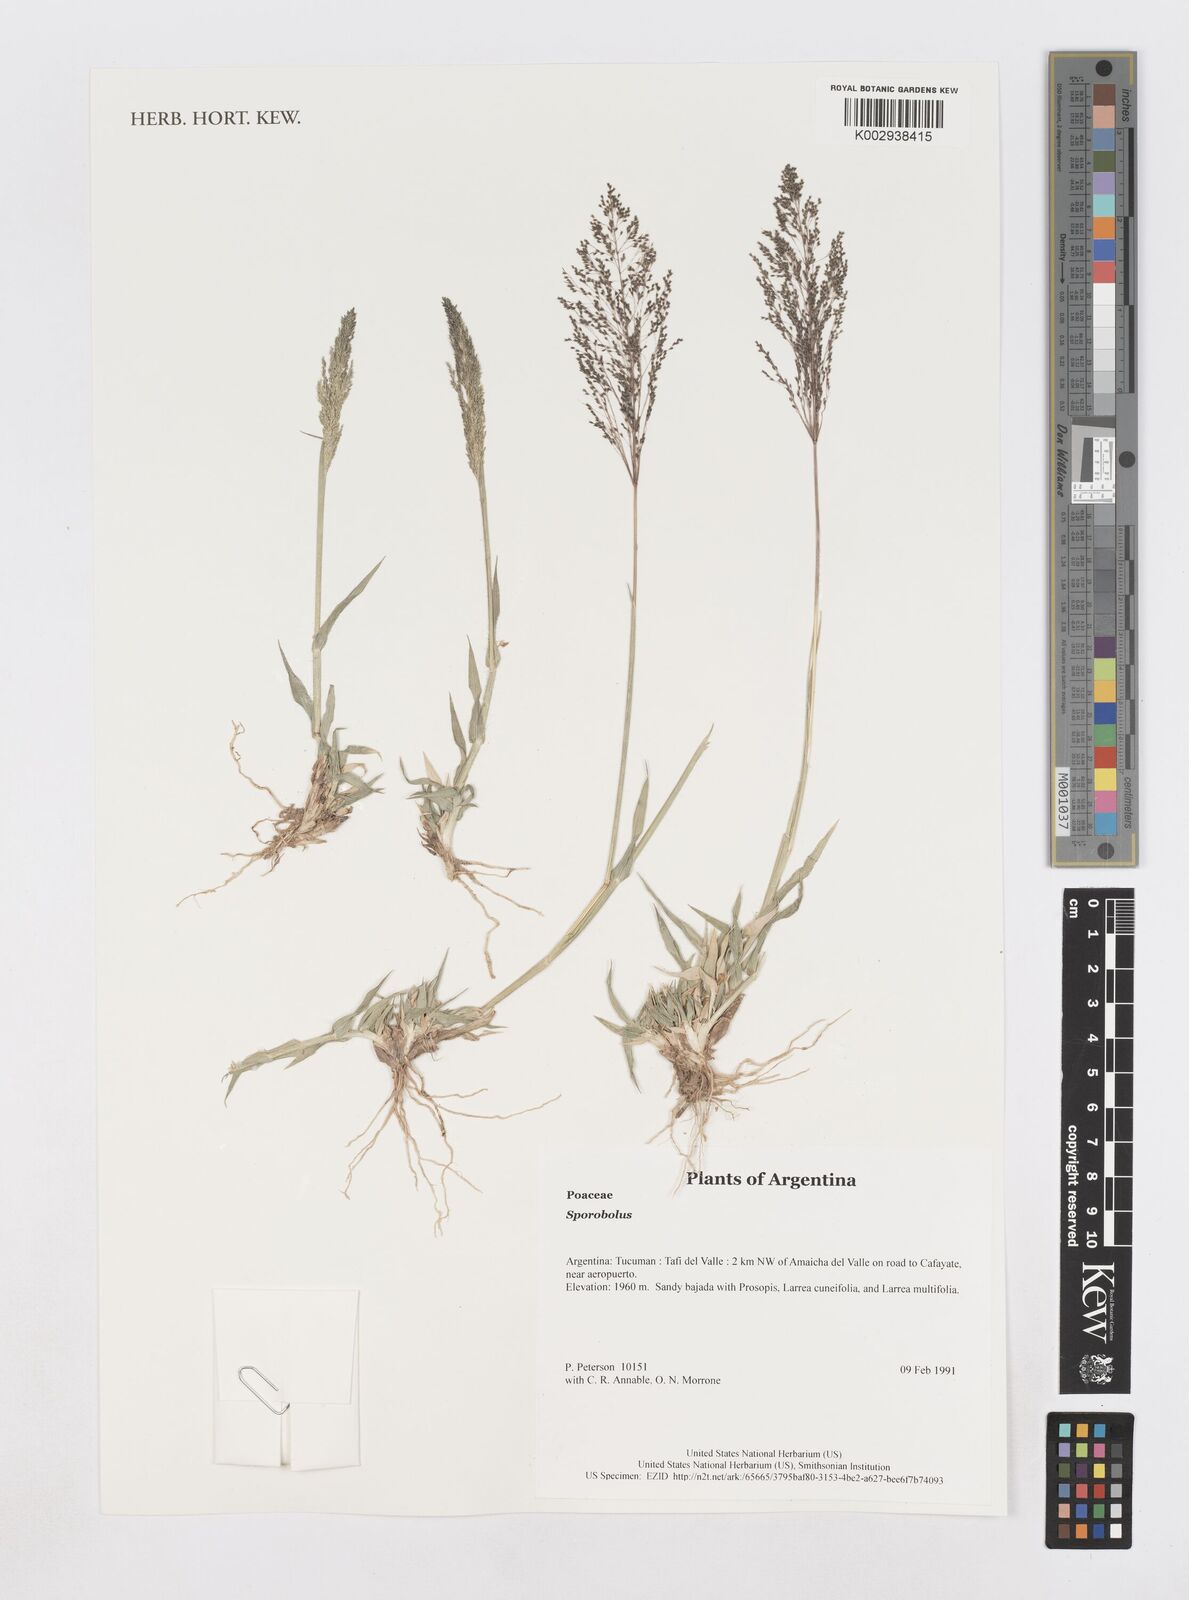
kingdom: Plantae
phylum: Tracheophyta
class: Liliopsida
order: Poales
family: Poaceae
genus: Sporobolus
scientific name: Sporobolus
